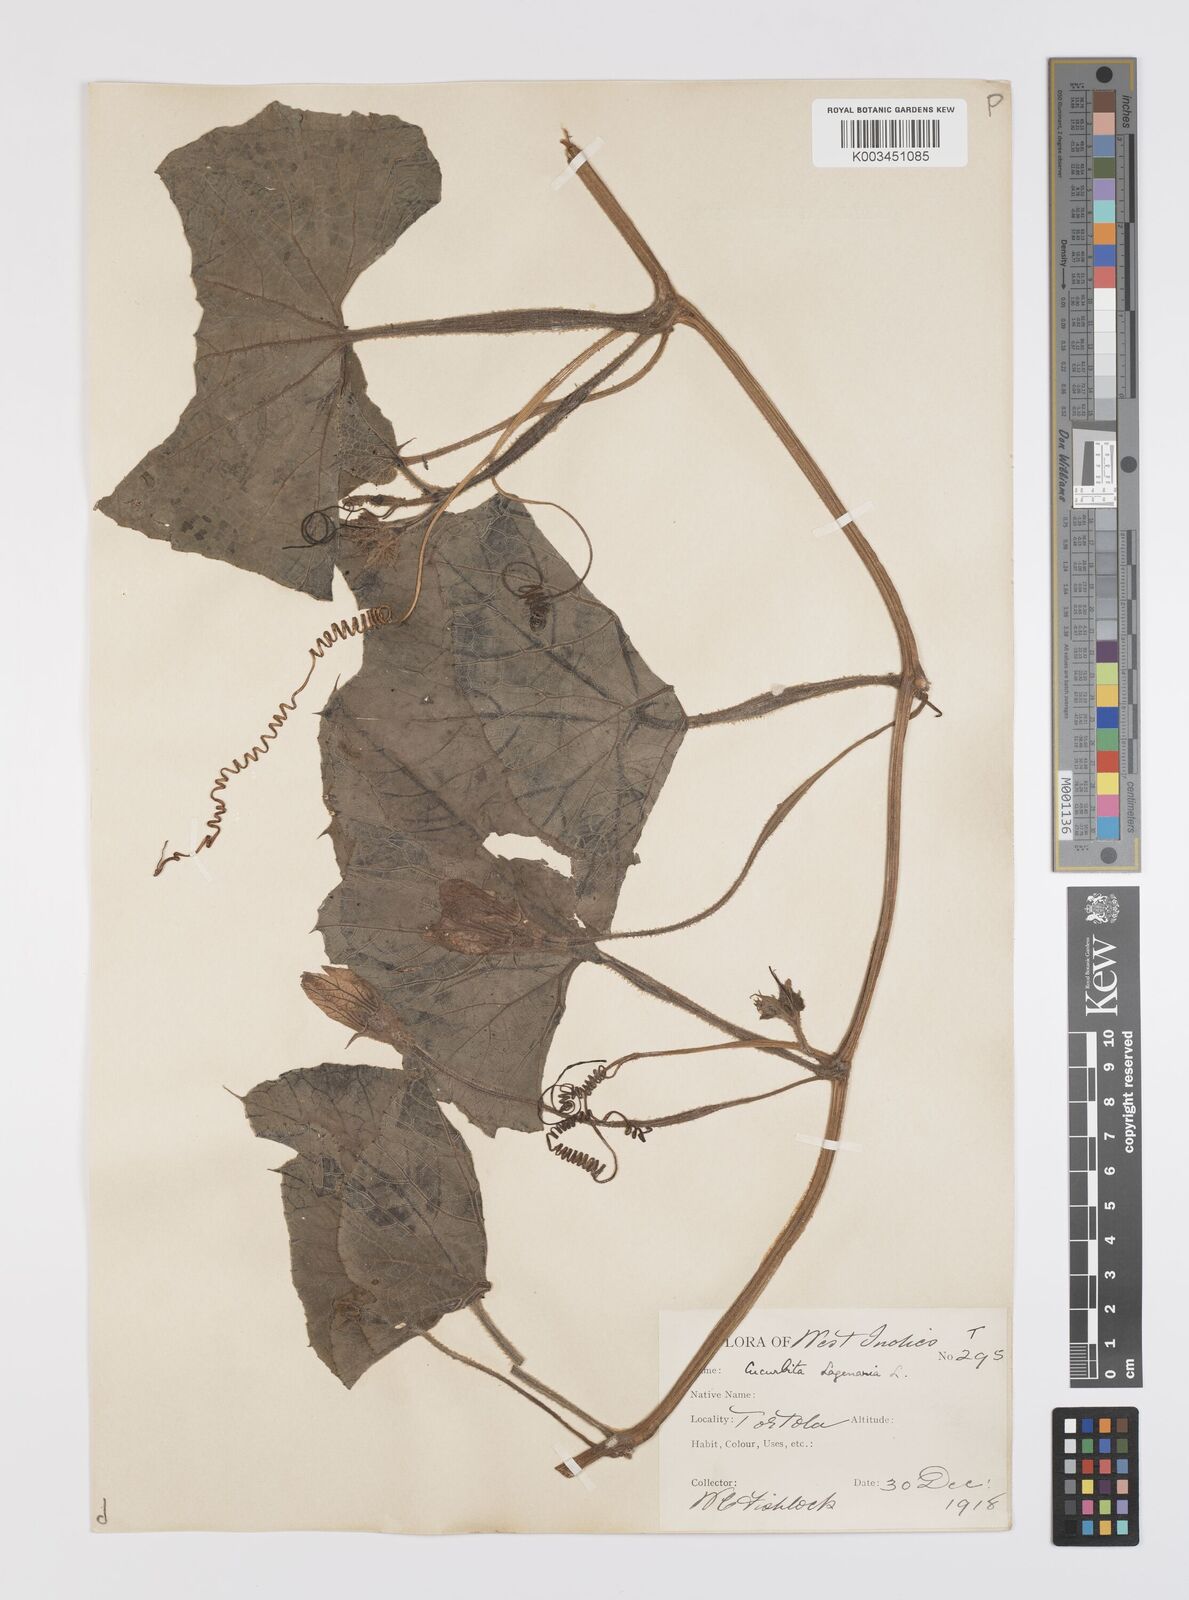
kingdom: Plantae
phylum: Tracheophyta
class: Magnoliopsida
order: Cucurbitales
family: Cucurbitaceae
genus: Lagenaria
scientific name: Lagenaria siceraria
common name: Bottle gourd
